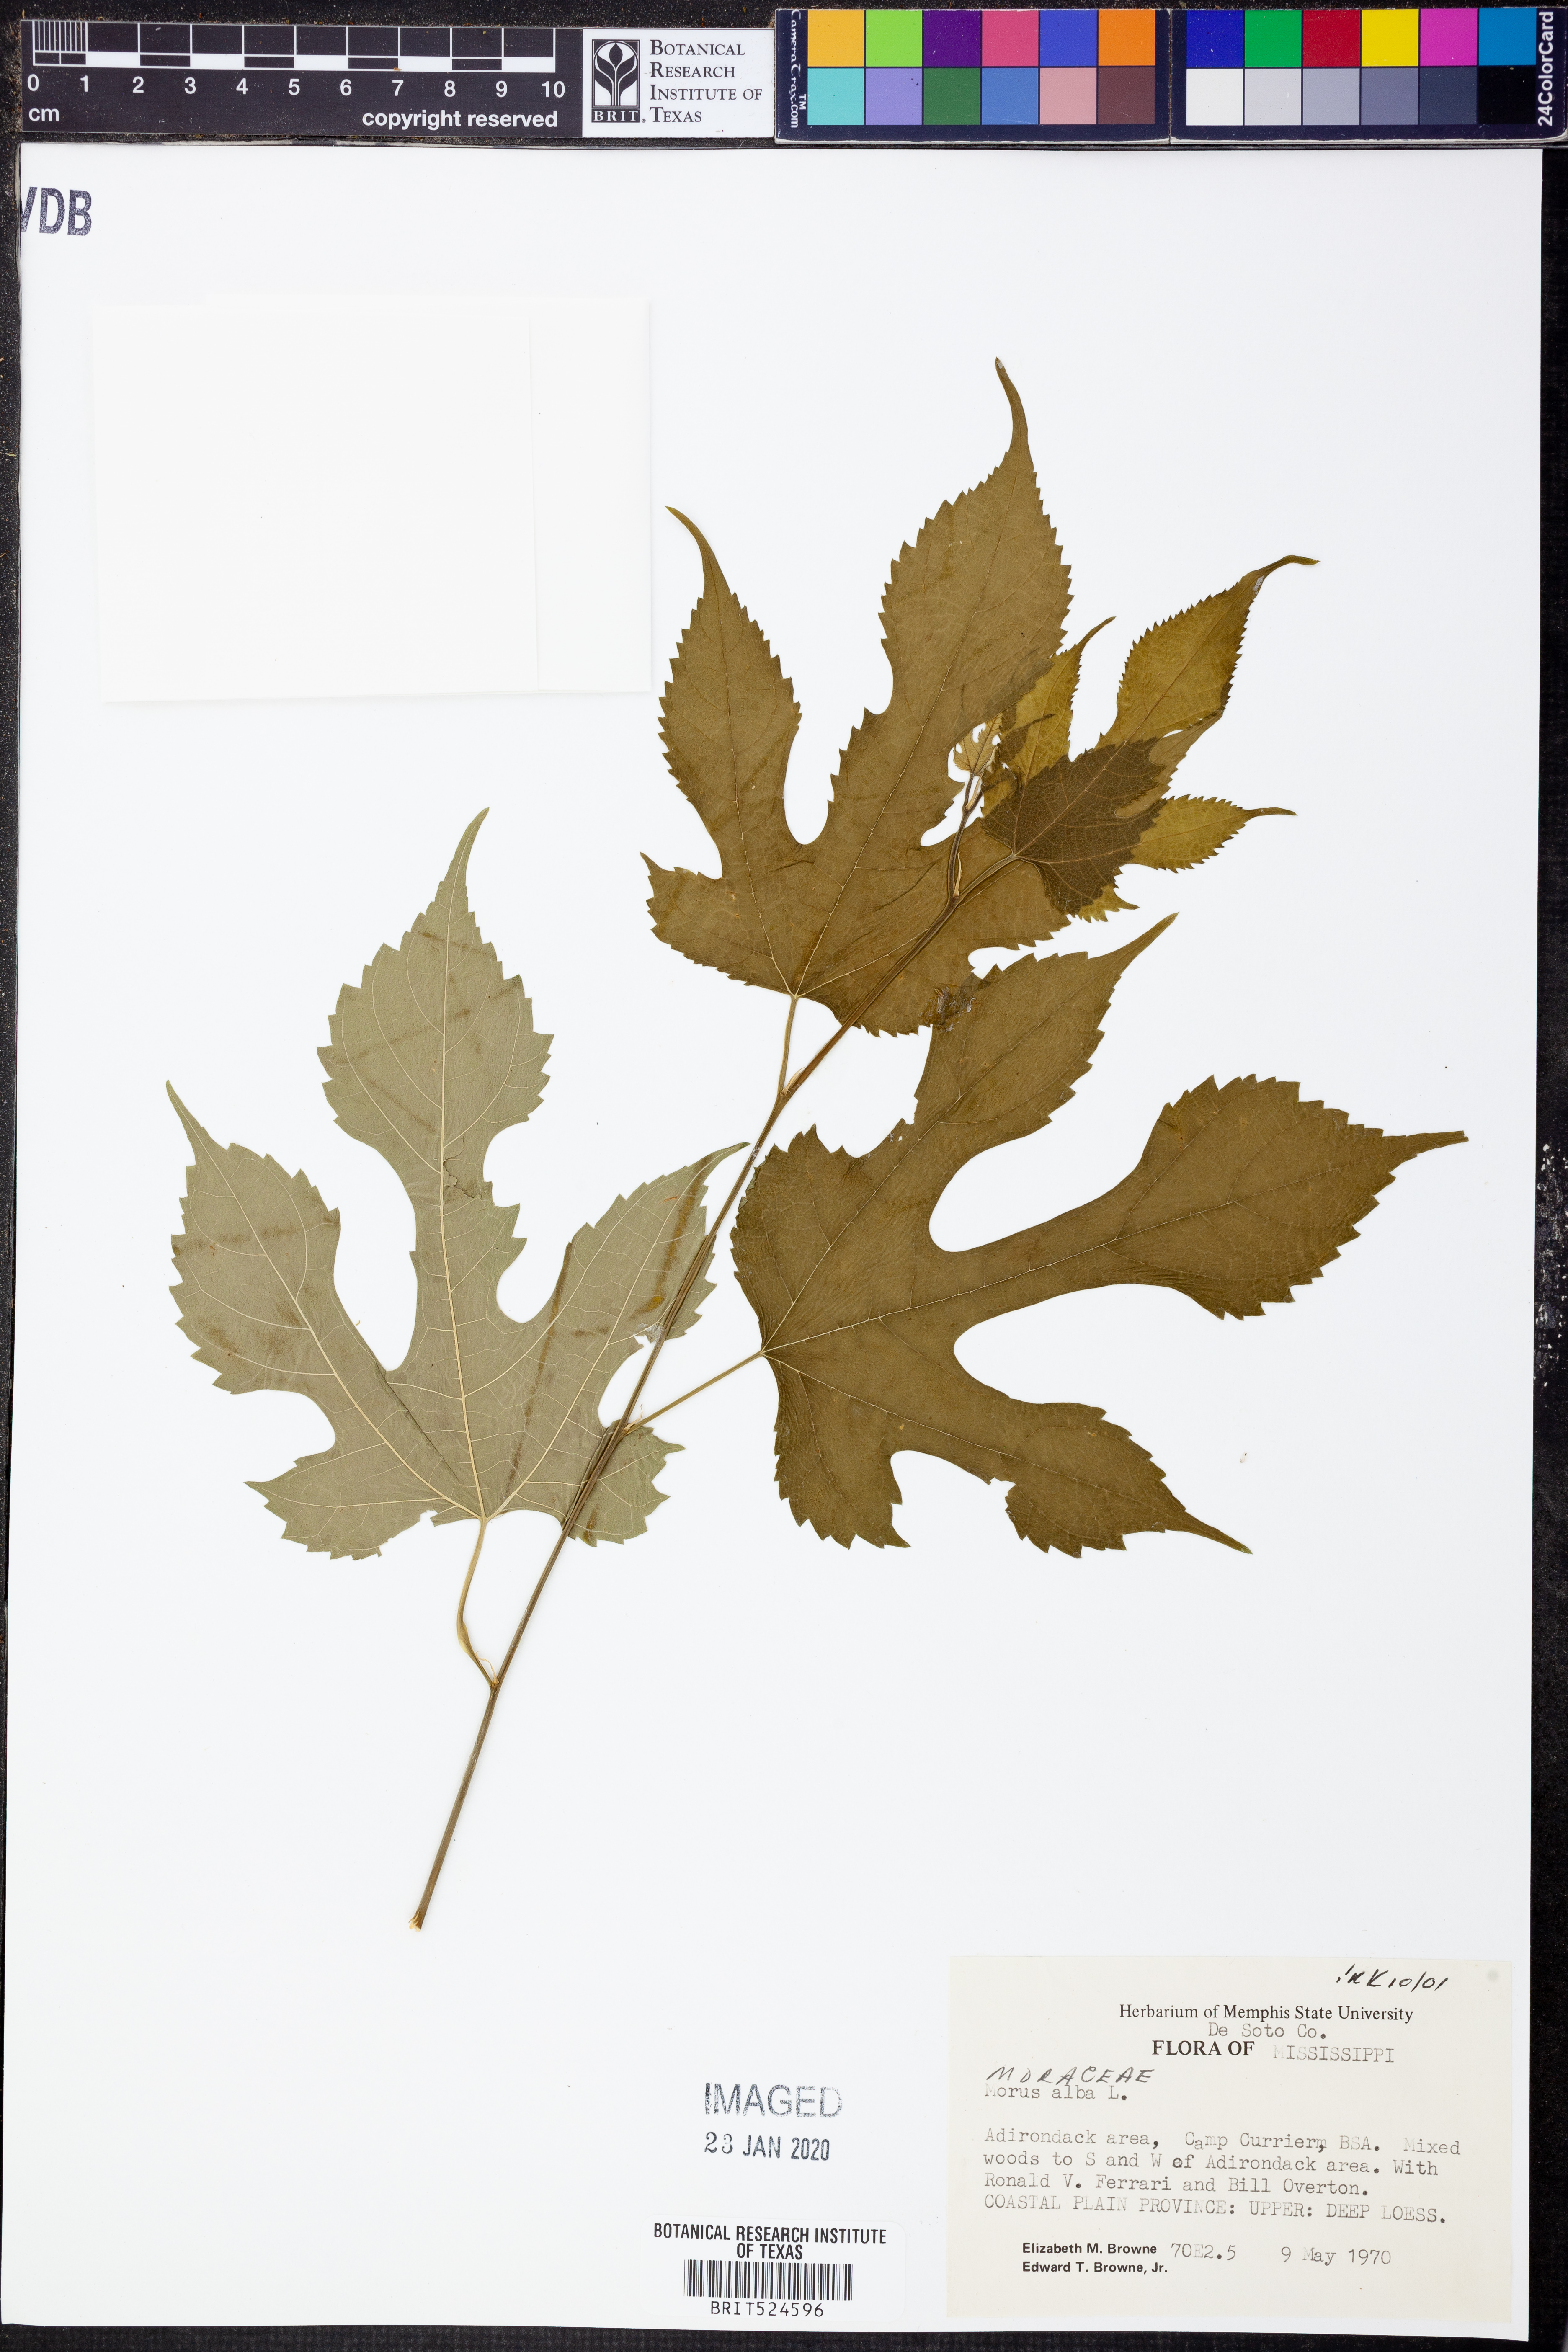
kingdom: Plantae
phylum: Tracheophyta
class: Magnoliopsida
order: Rosales
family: Moraceae
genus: Morus
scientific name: Morus alba
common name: White mulberry
